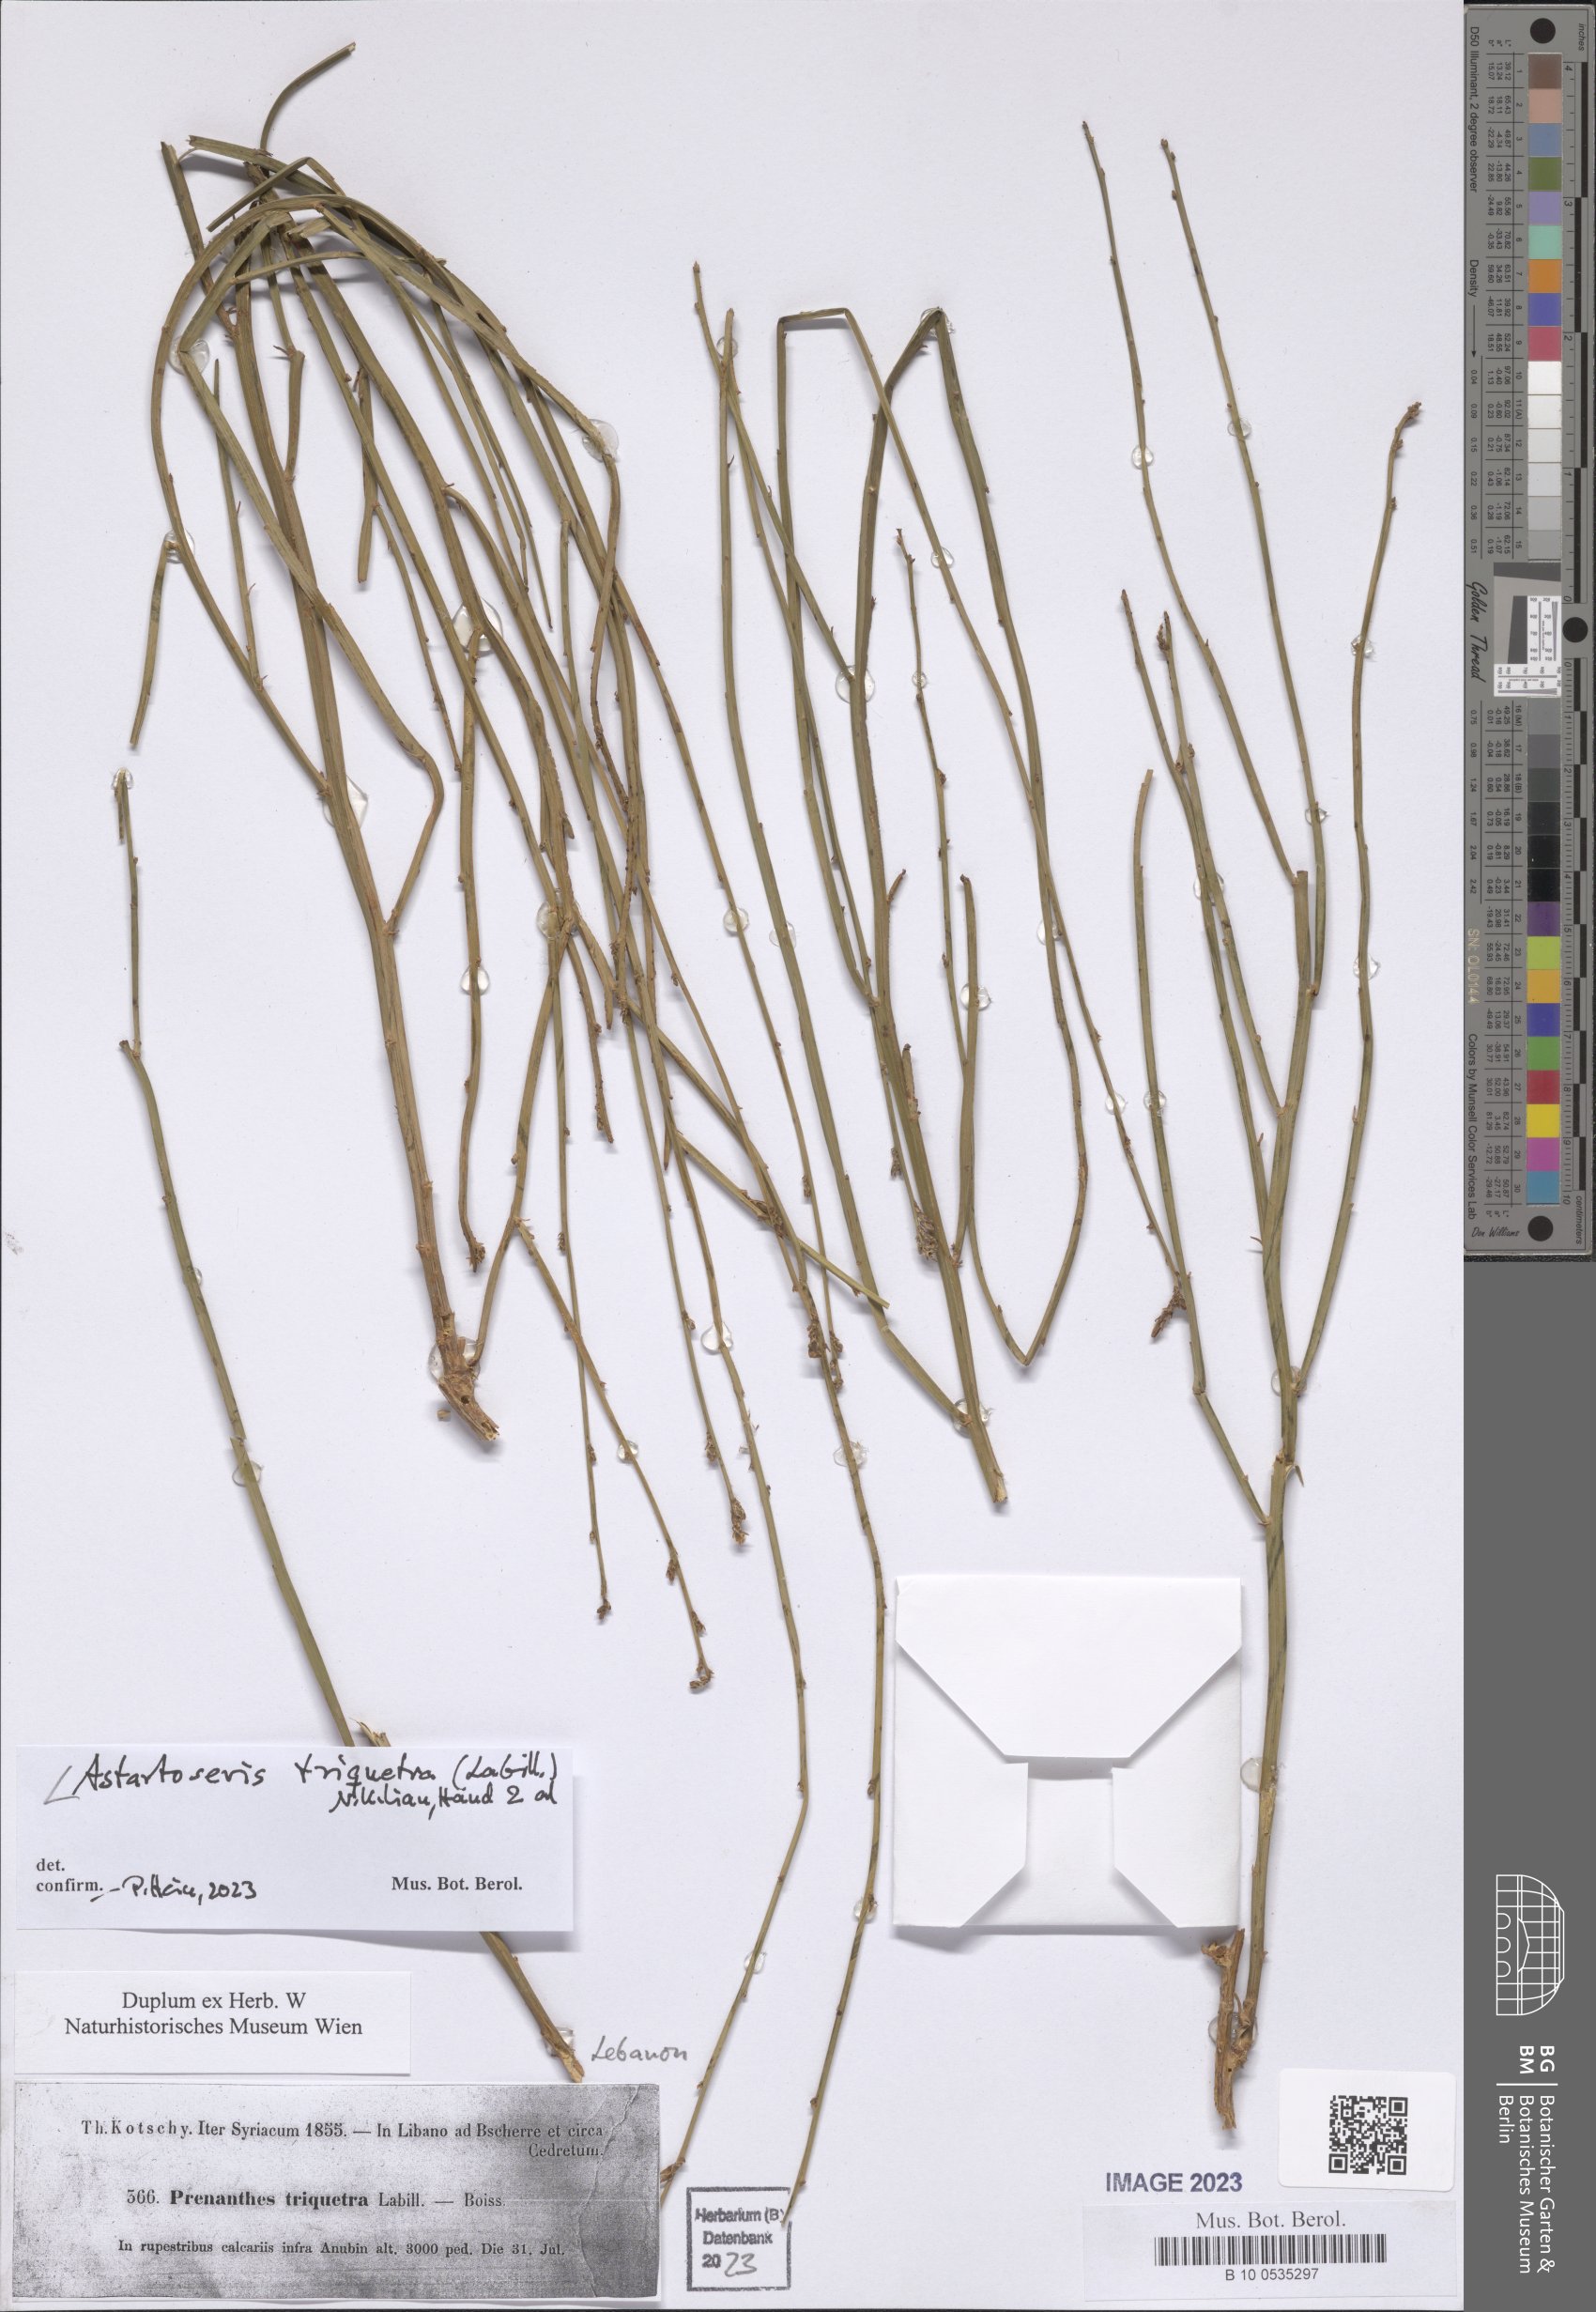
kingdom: Plantae
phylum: Tracheophyta
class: Magnoliopsida
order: Asterales
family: Asteraceae
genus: Astartoseris
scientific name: Astartoseris triquetra
